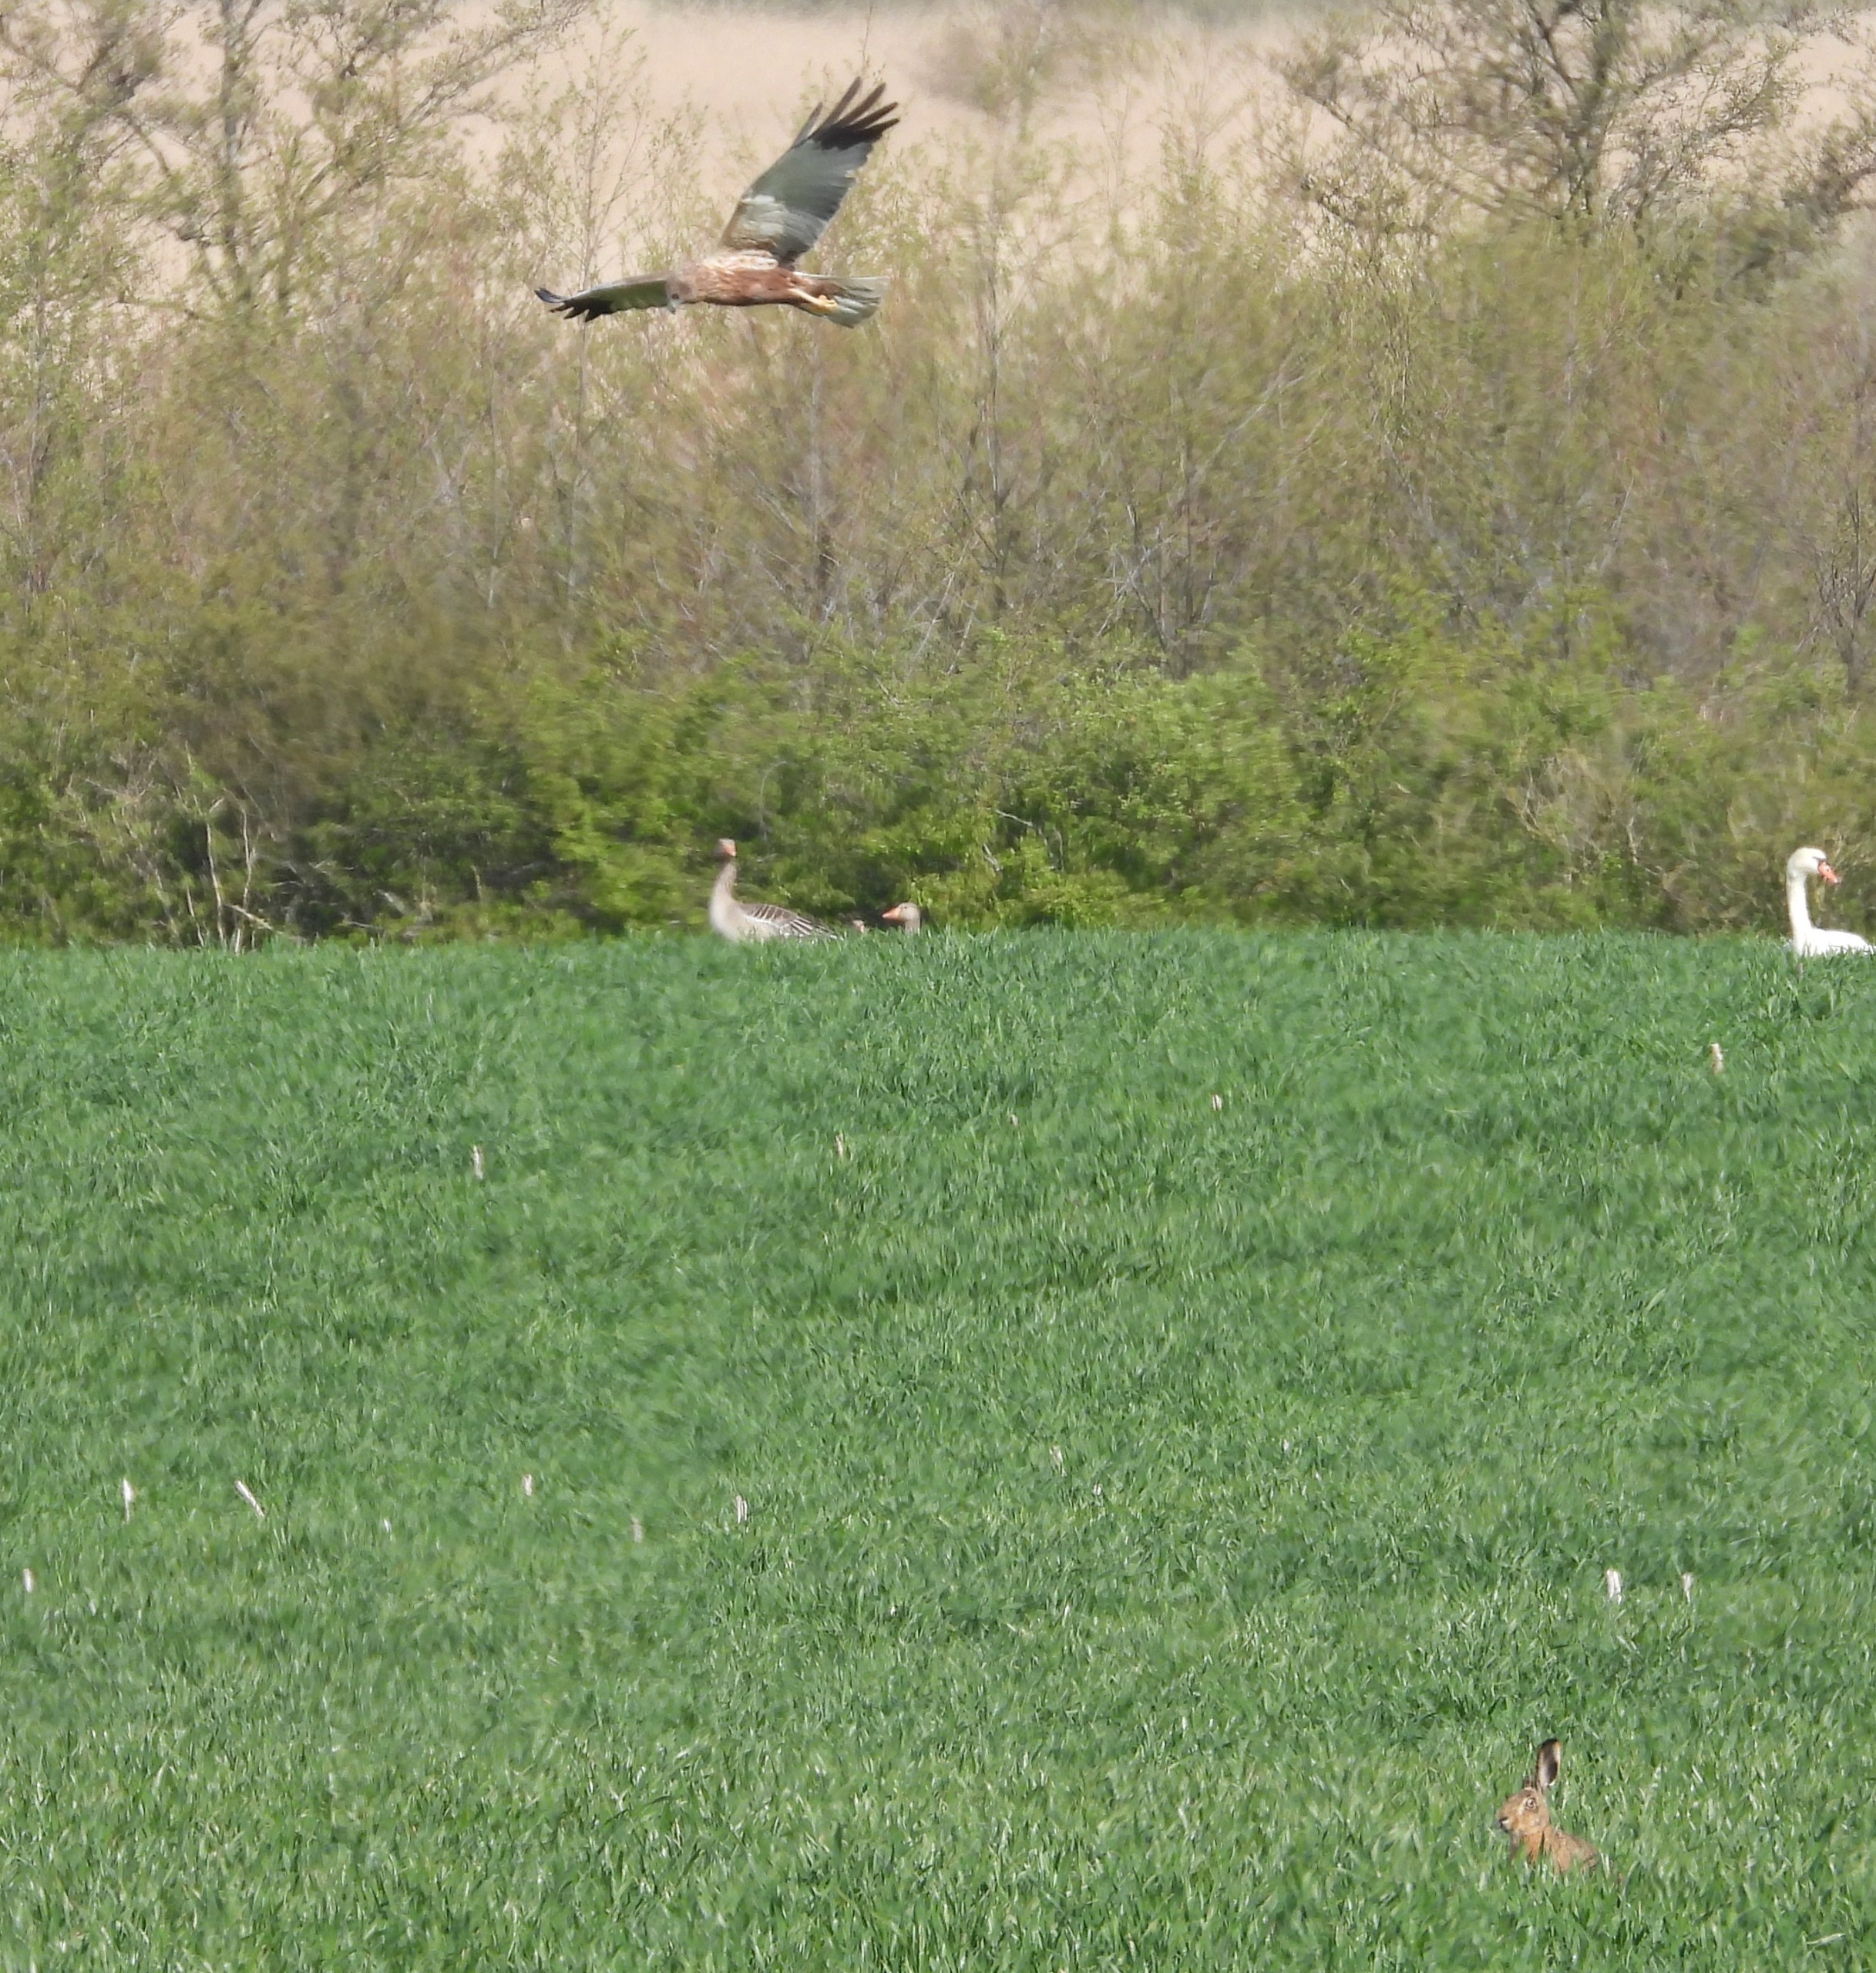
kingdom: Animalia
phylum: Chordata
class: Aves
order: Accipitriformes
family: Accipitridae
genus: Circus
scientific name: Circus aeruginosus
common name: Rørhøg
